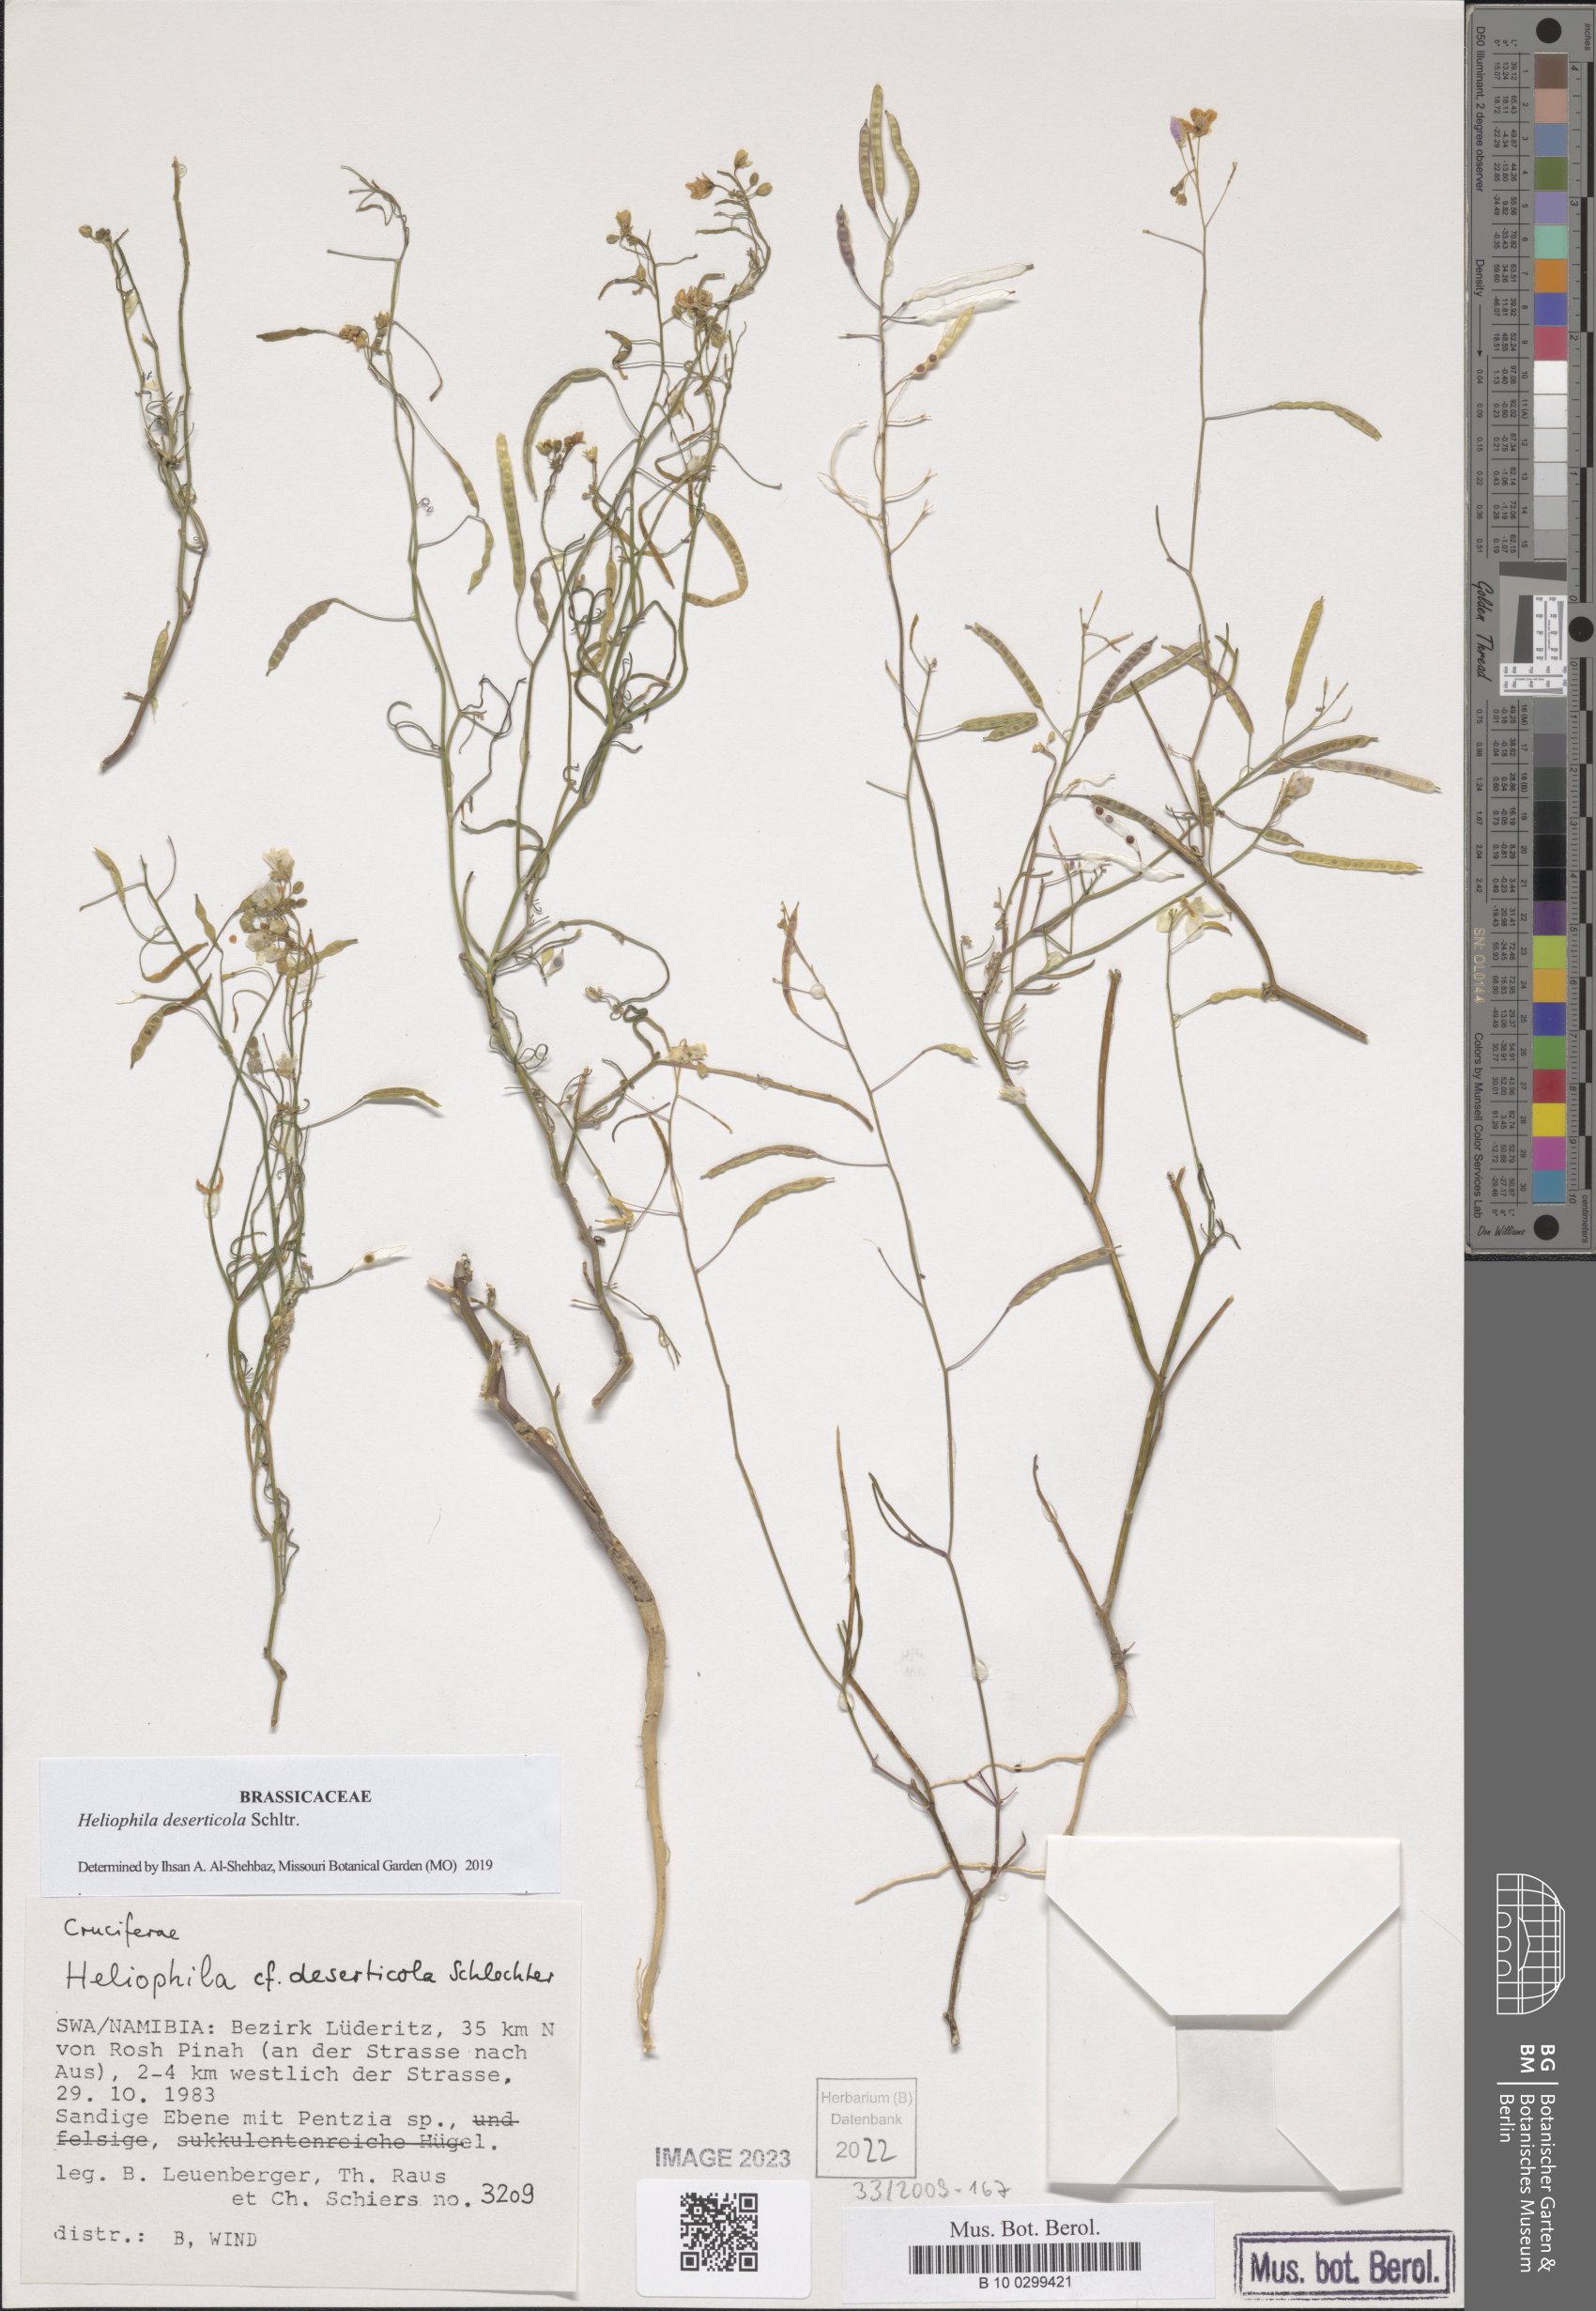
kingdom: Plantae
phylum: Tracheophyta
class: Magnoliopsida
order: Brassicales
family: Brassicaceae
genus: Heliophila
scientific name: Heliophila deserticola
